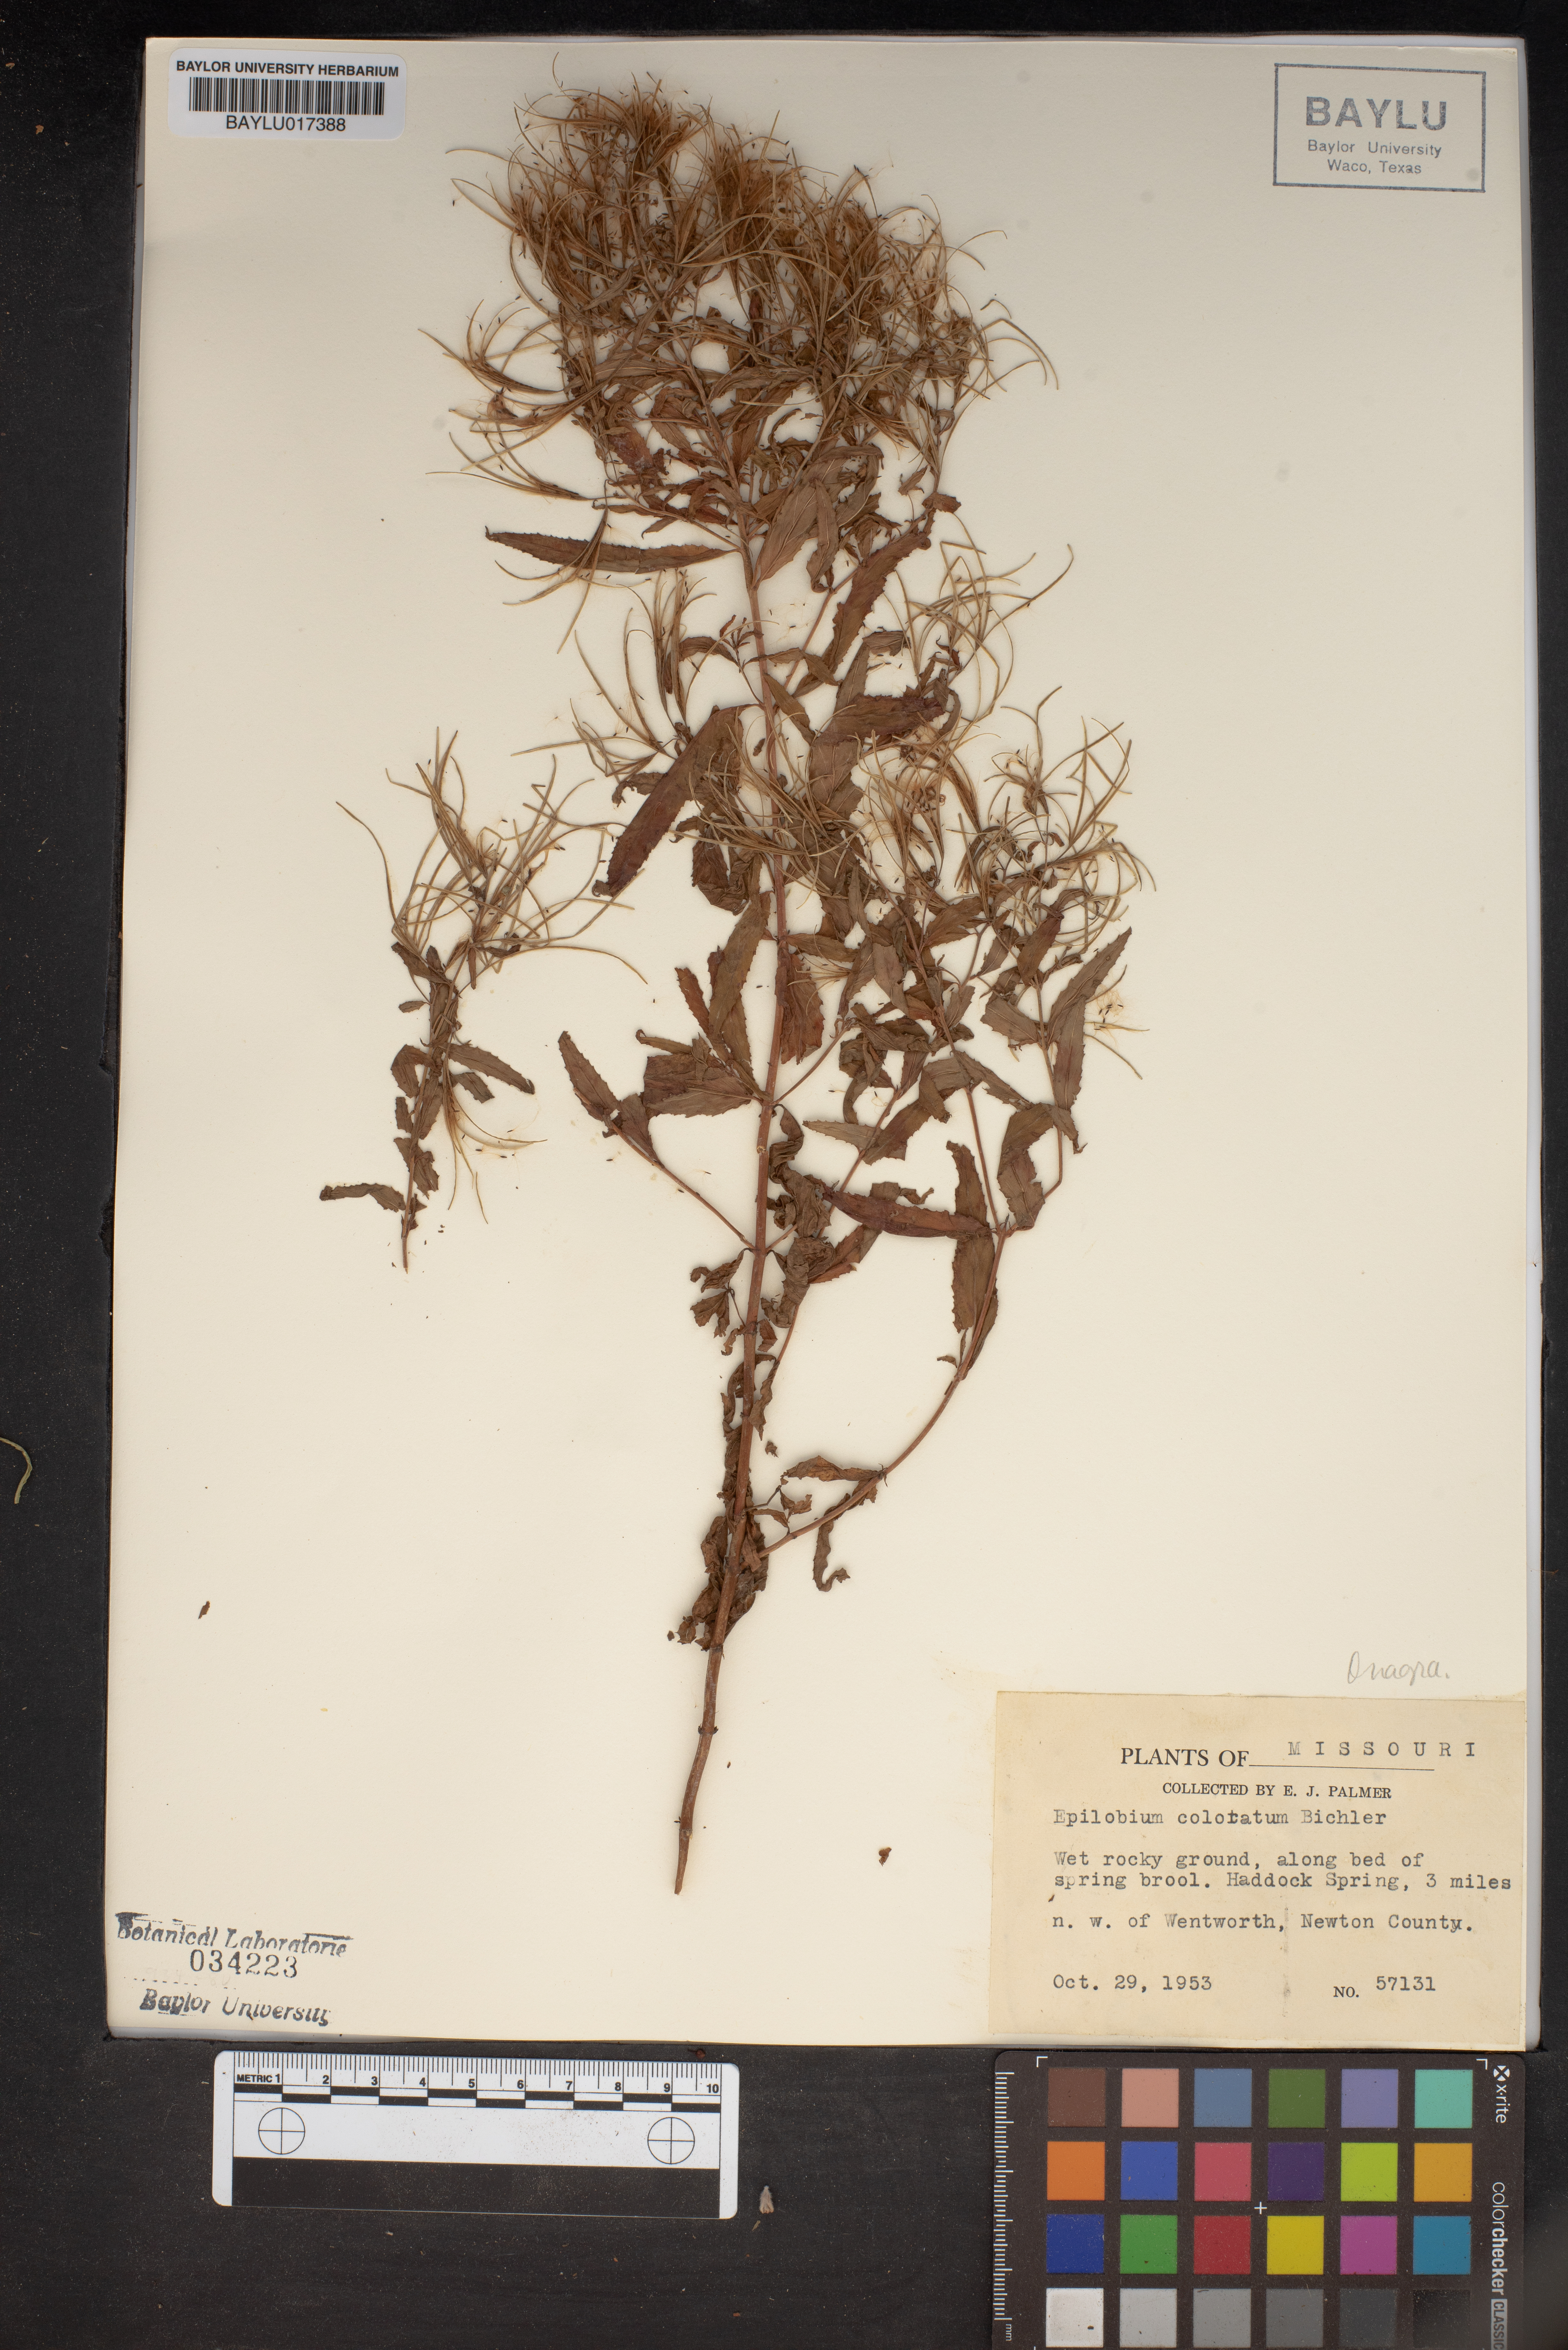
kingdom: Plantae
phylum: Tracheophyta
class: Magnoliopsida
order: Myrtales
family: Onagraceae
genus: Epilobium
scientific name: Epilobium coloratum
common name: Bronze willowherb
